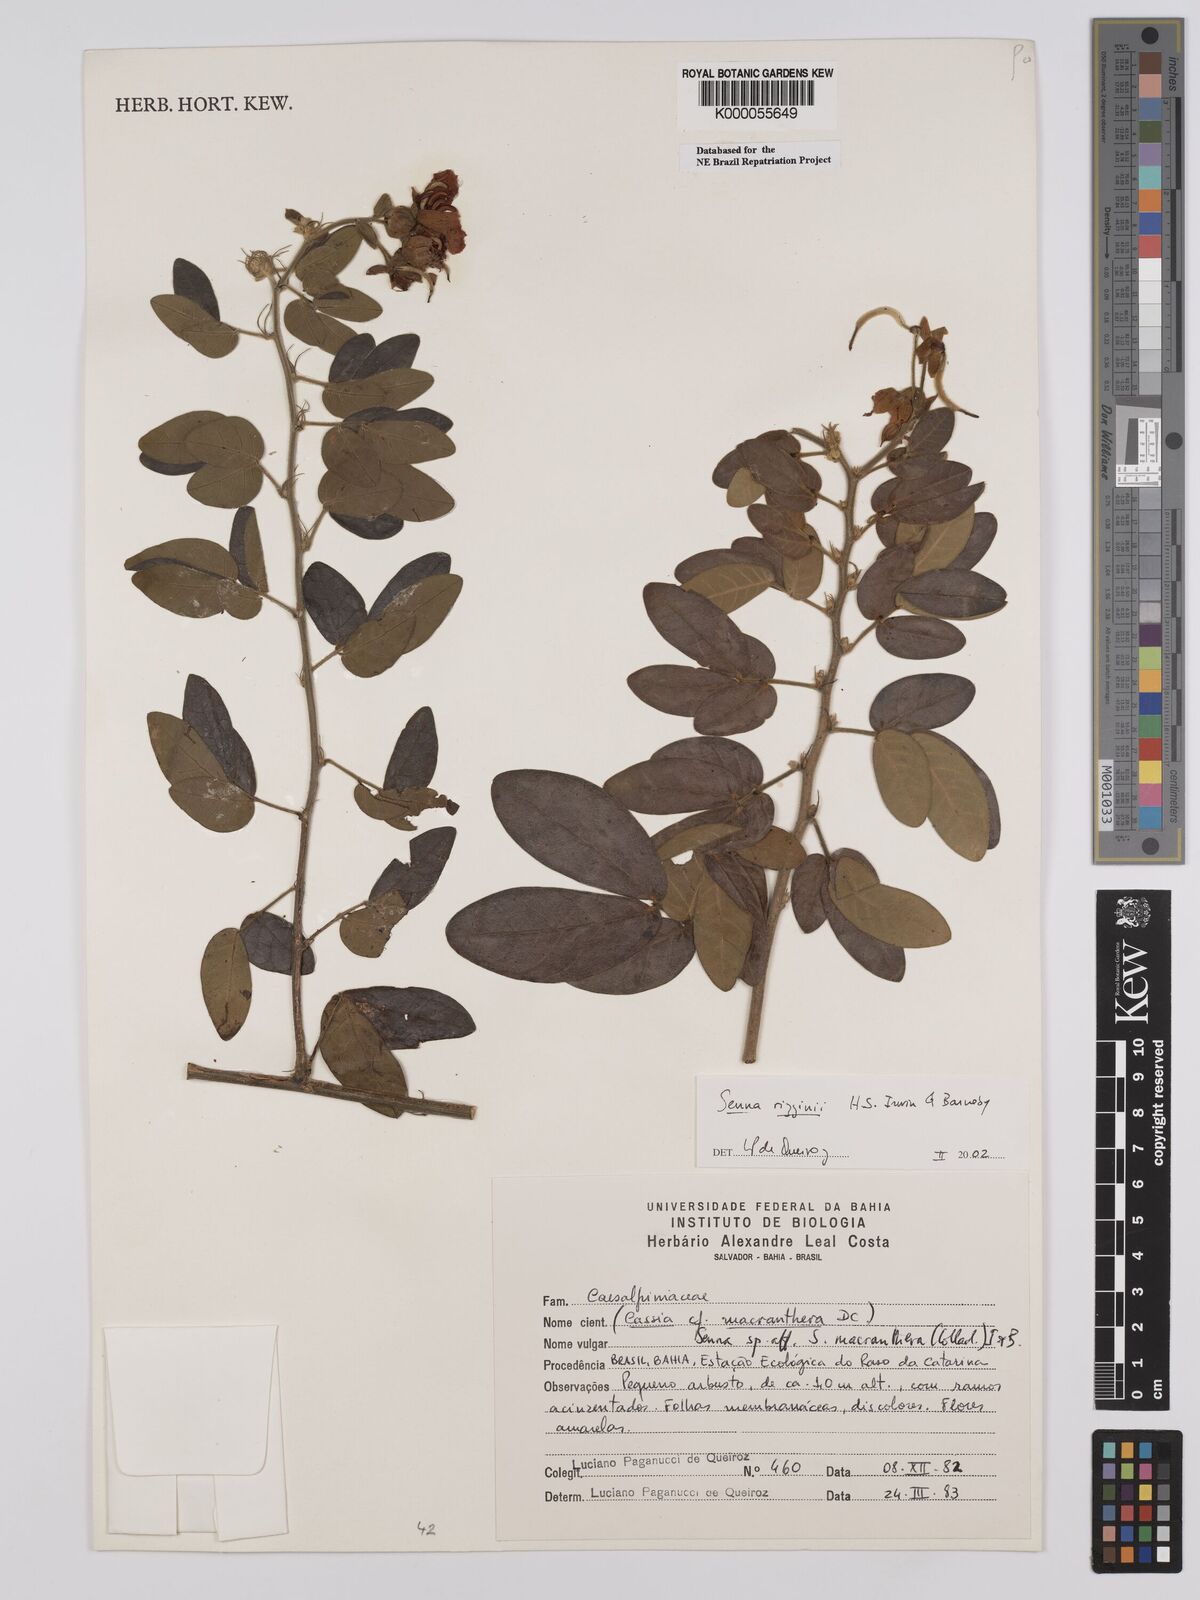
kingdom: Plantae
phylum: Tracheophyta
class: Magnoliopsida
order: Fabales
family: Fabaceae
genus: Senna
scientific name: Senna rizzinii
